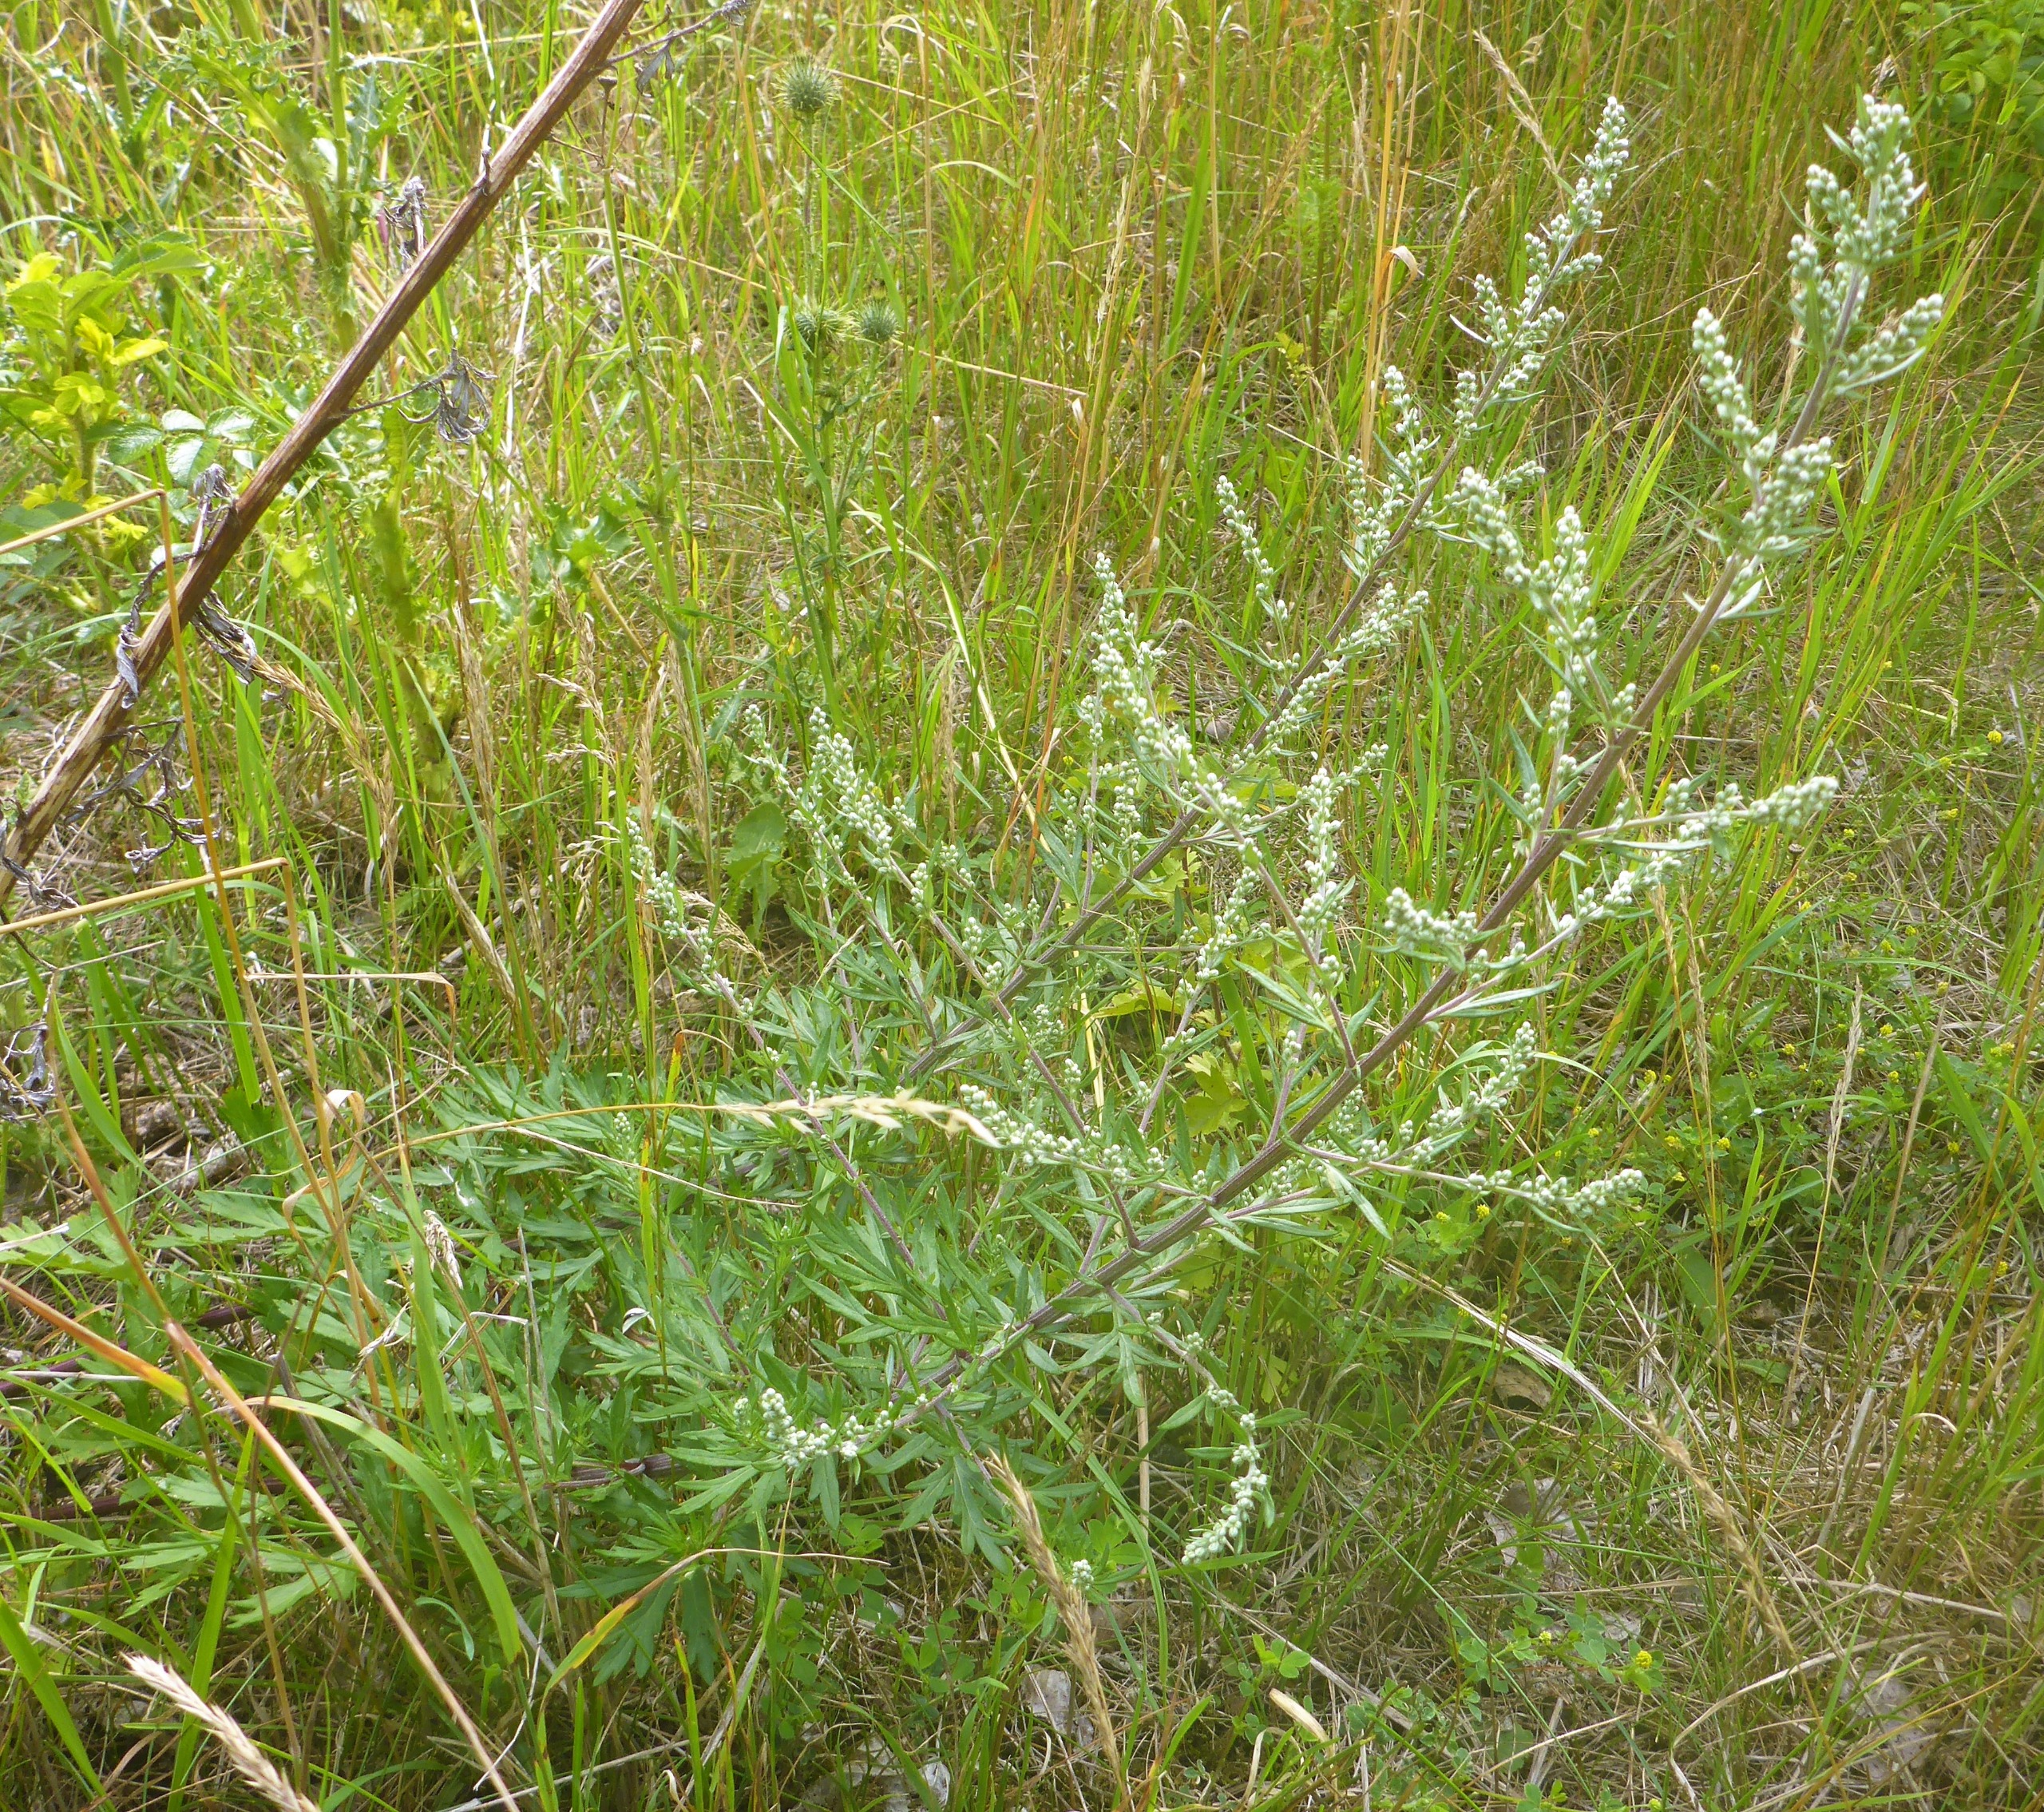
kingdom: Plantae
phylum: Tracheophyta
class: Magnoliopsida
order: Asterales
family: Asteraceae
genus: Artemisia
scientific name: Artemisia vulgaris
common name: Grå-bynke
